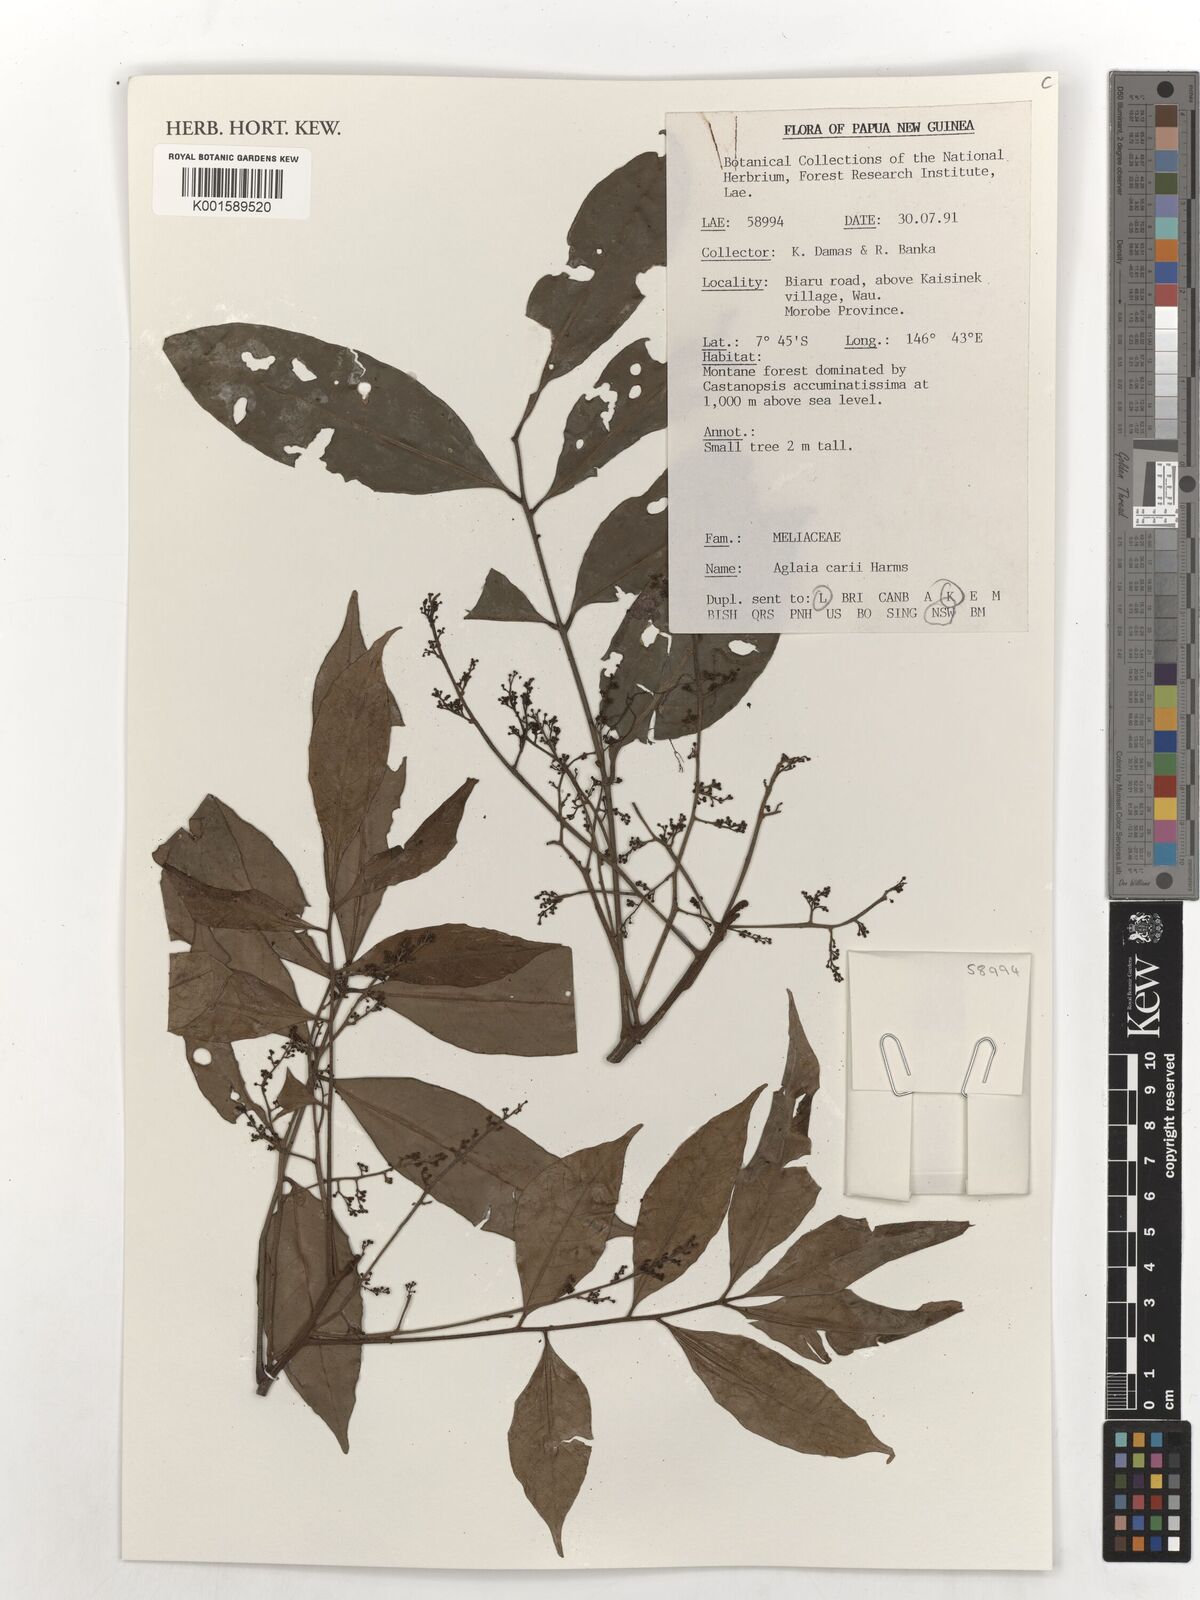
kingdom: Plantae
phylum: Tracheophyta
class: Magnoliopsida
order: Sapindales
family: Meliaceae
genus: Aglaia
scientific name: Aglaia subminutiflora
